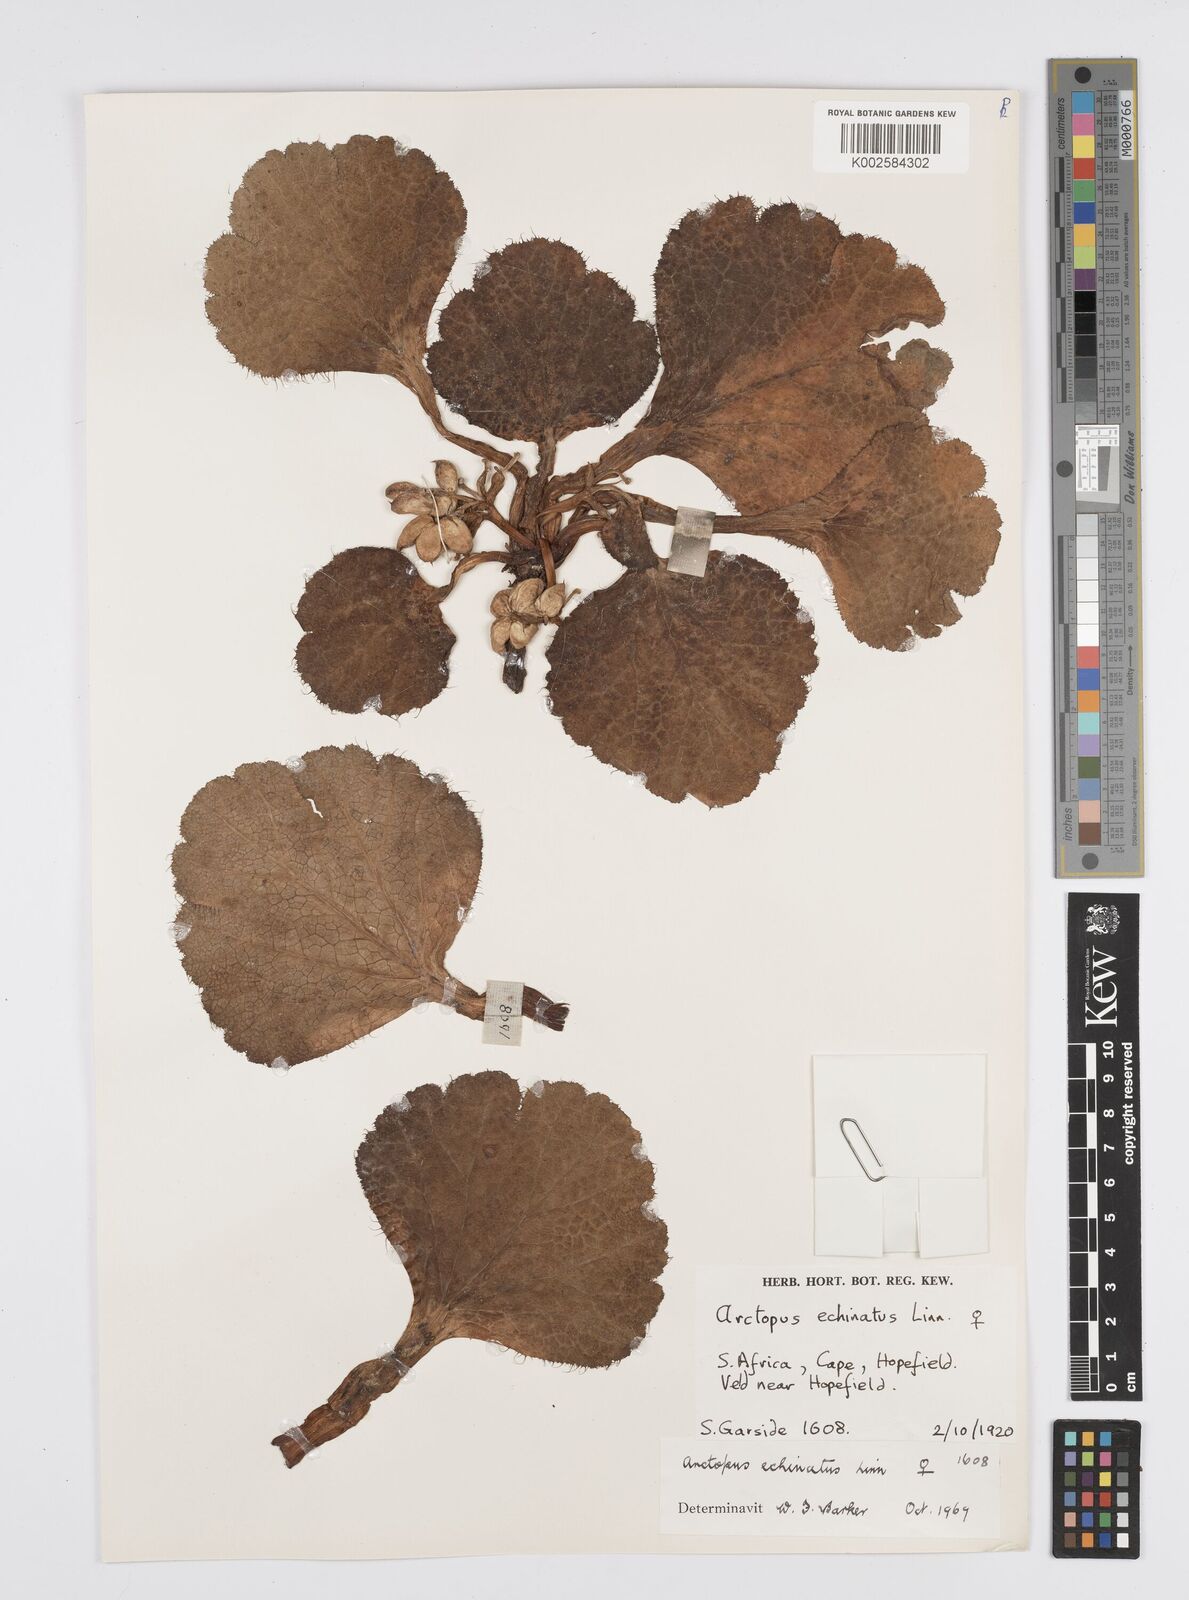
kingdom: Plantae
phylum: Tracheophyta
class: Magnoliopsida
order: Apiales
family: Apiaceae
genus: Arctopus
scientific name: Arctopus echinatus
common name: Platdoring
